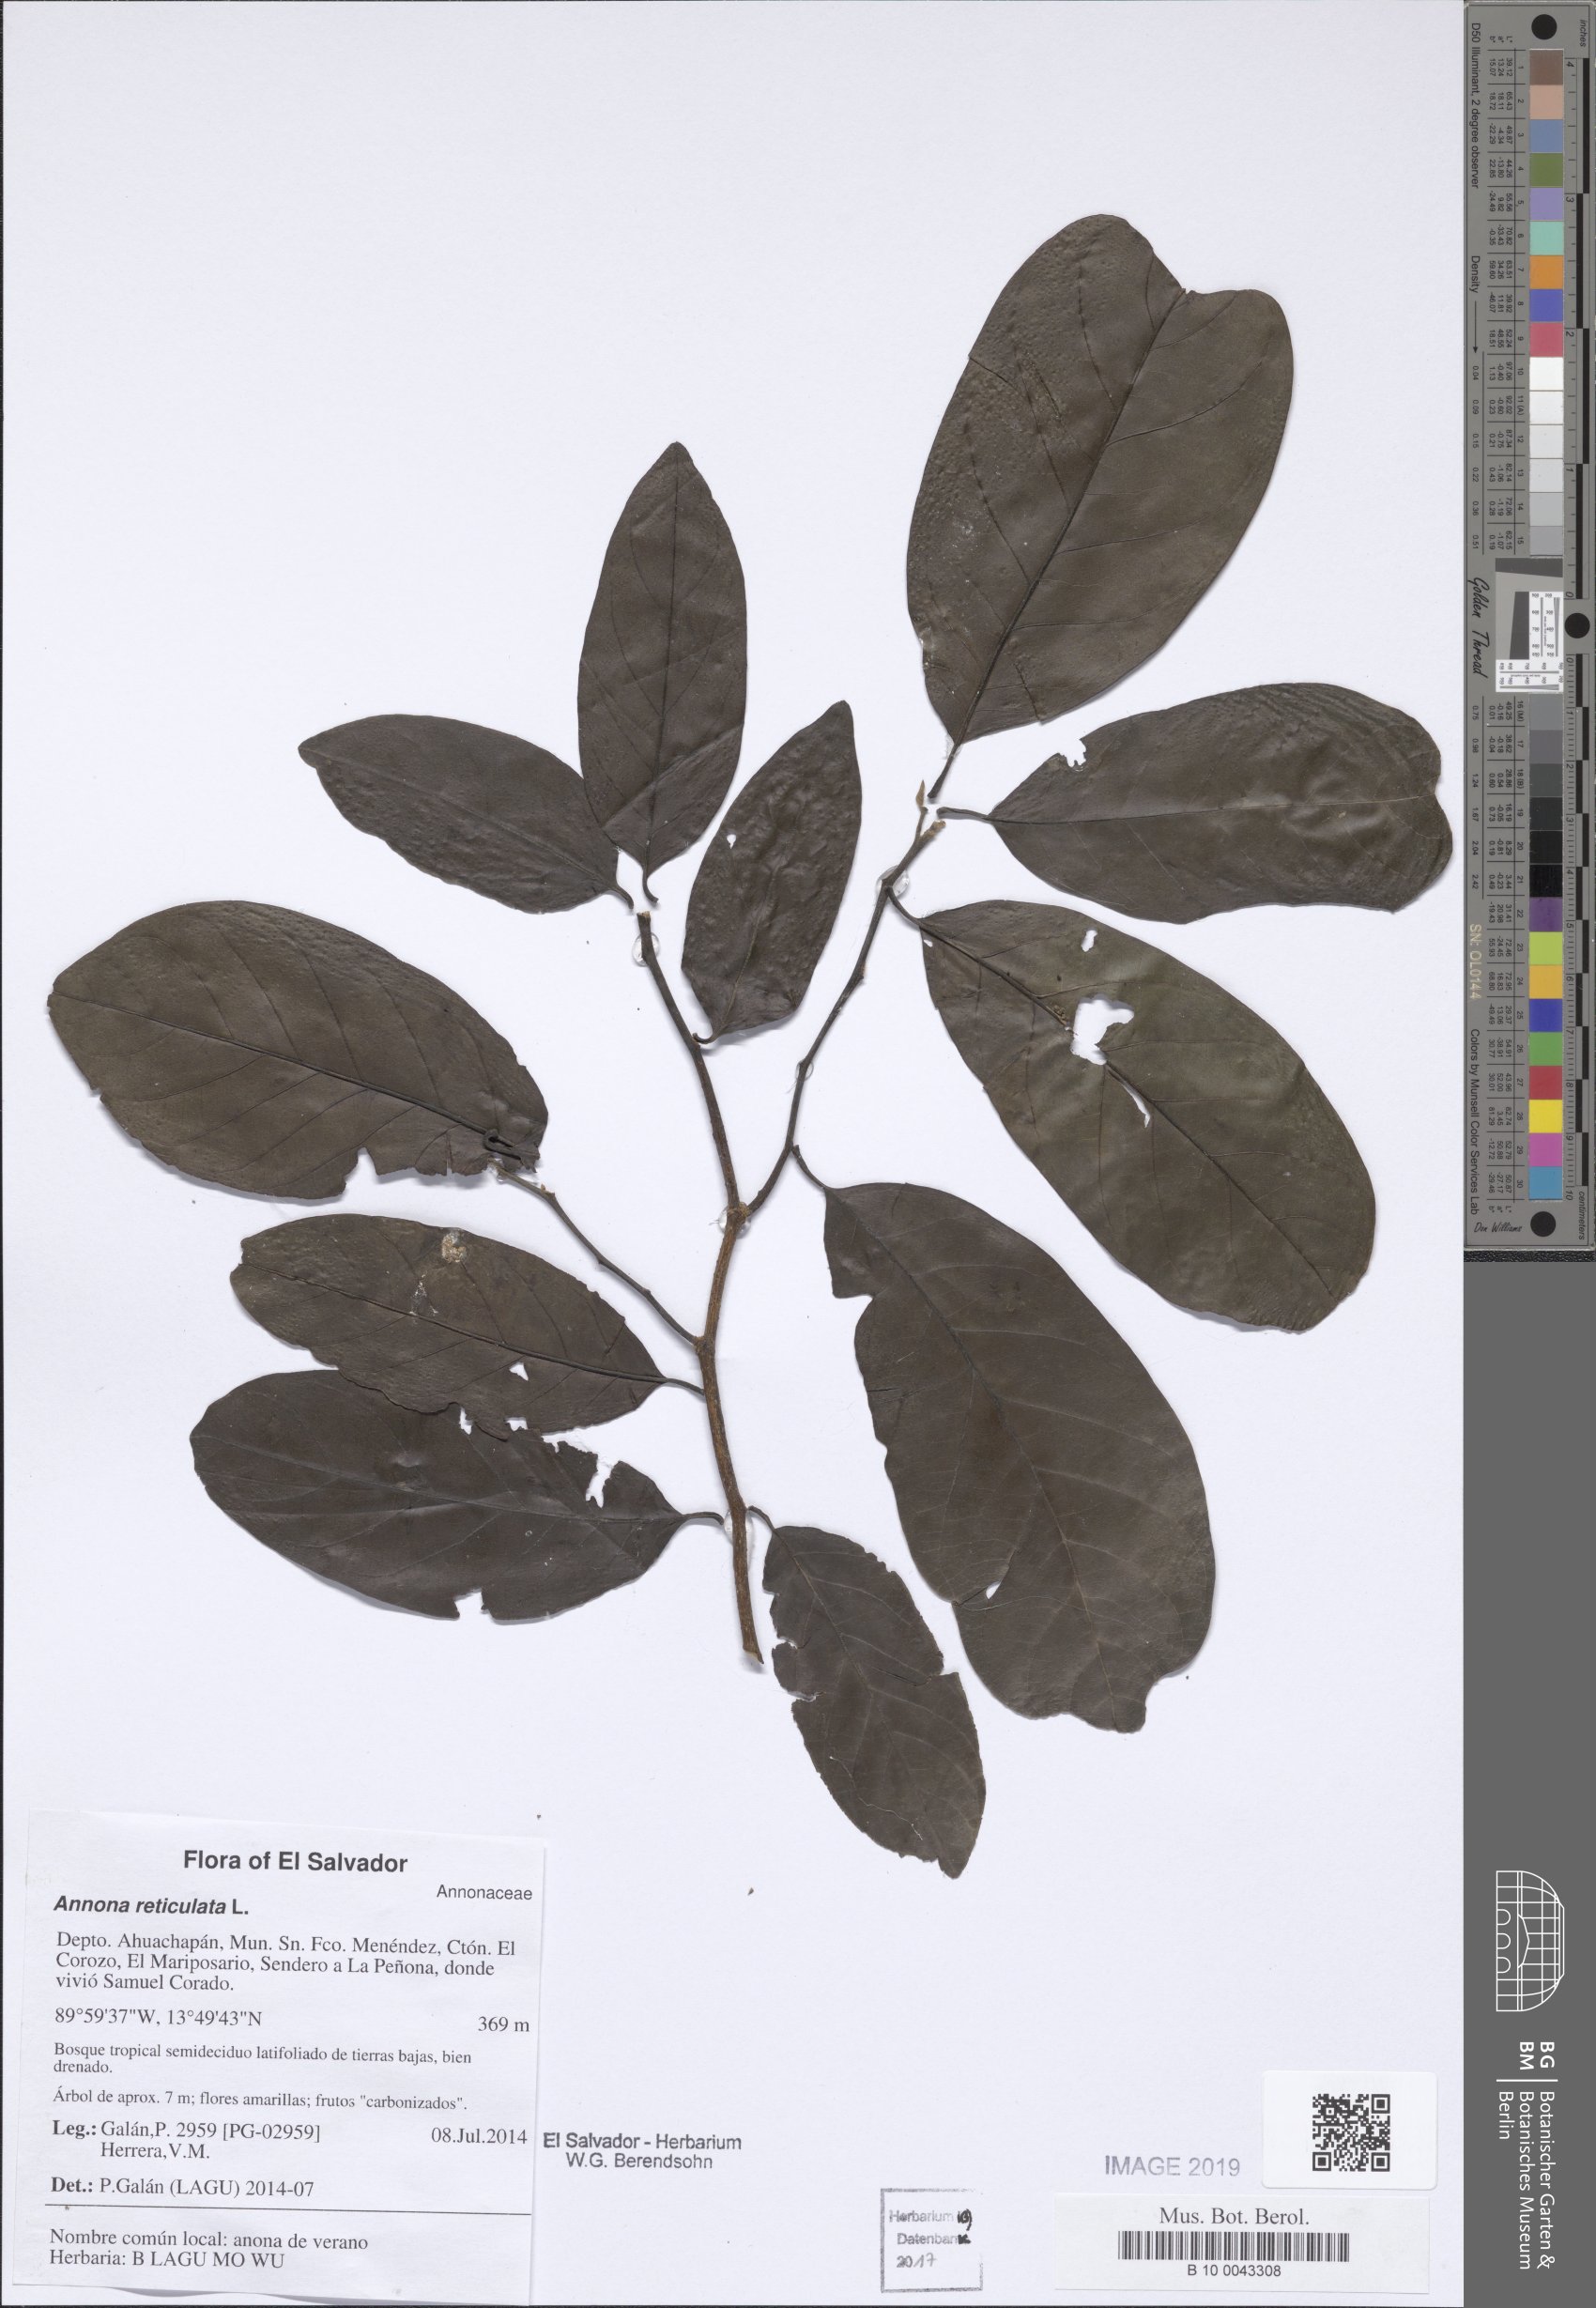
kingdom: Plantae
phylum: Tracheophyta
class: Magnoliopsida
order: Magnoliales
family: Annonaceae
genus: Annona
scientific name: Annona reticulata
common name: Custard apple
